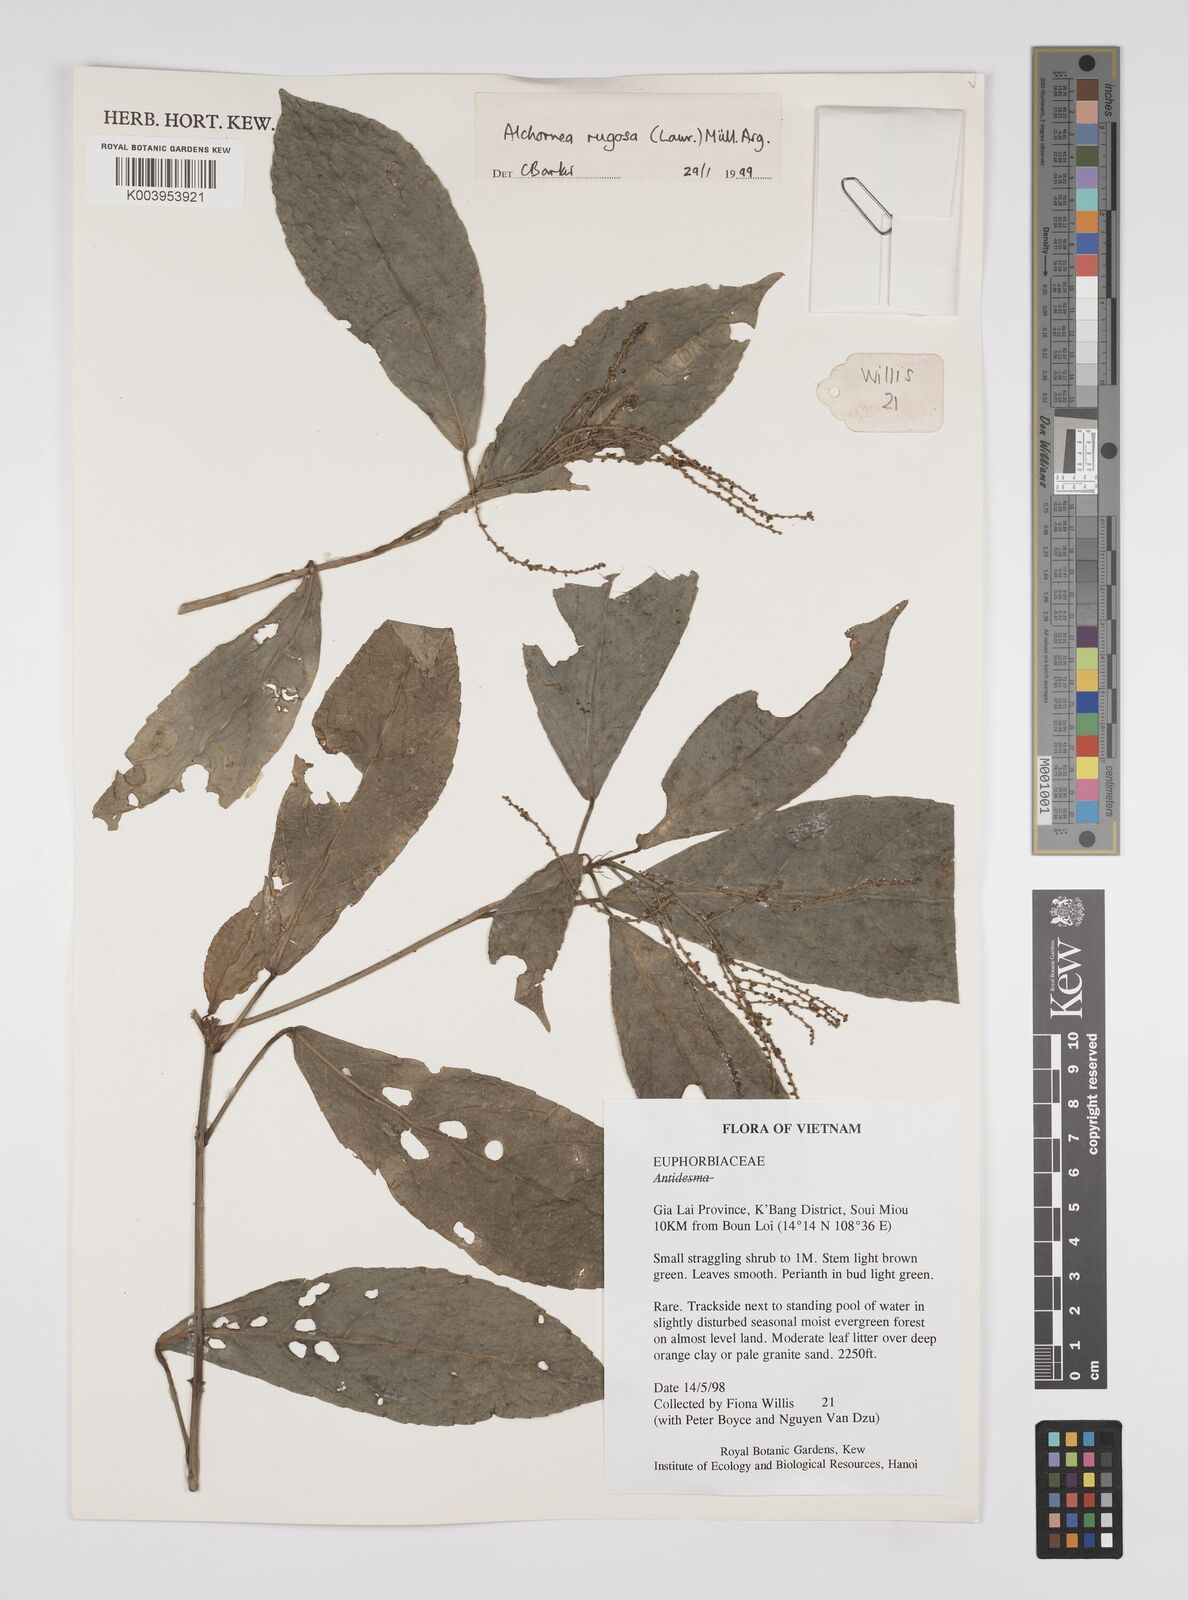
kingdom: Plantae
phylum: Tracheophyta
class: Magnoliopsida
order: Malpighiales
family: Euphorbiaceae
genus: Alchornea
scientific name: Alchornea rugosa
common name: Alchorntree
